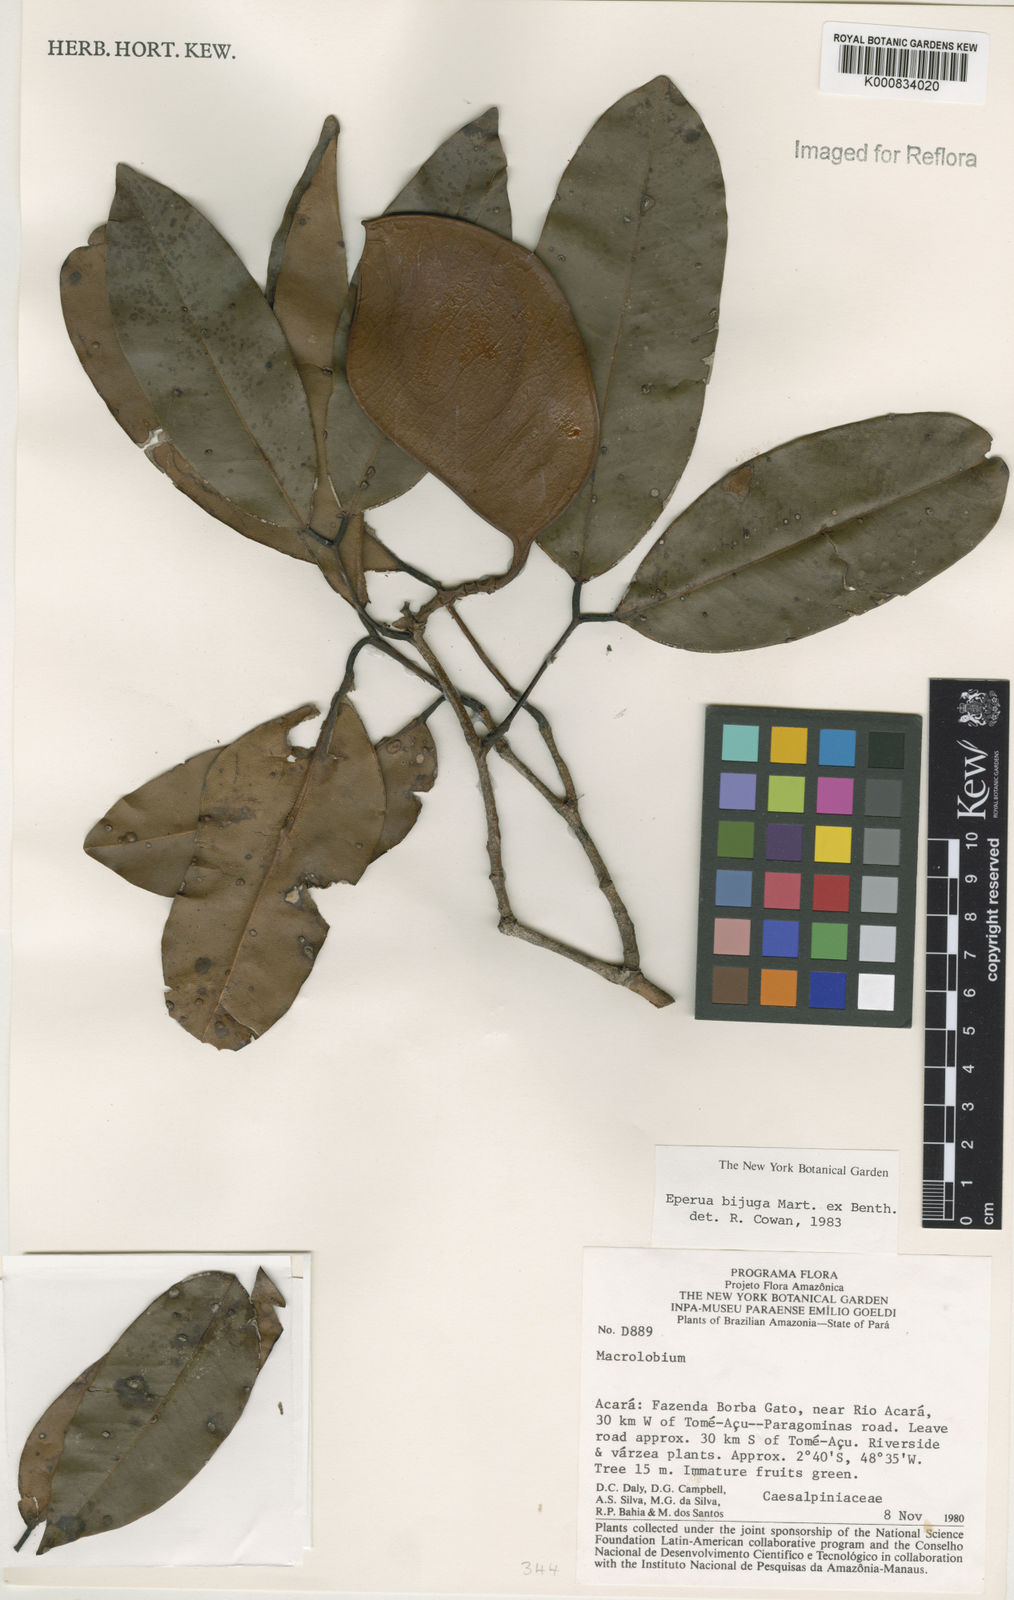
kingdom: Plantae
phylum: Tracheophyta
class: Magnoliopsida
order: Fabales
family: Fabaceae
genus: Eperua
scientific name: Eperua bijuga
